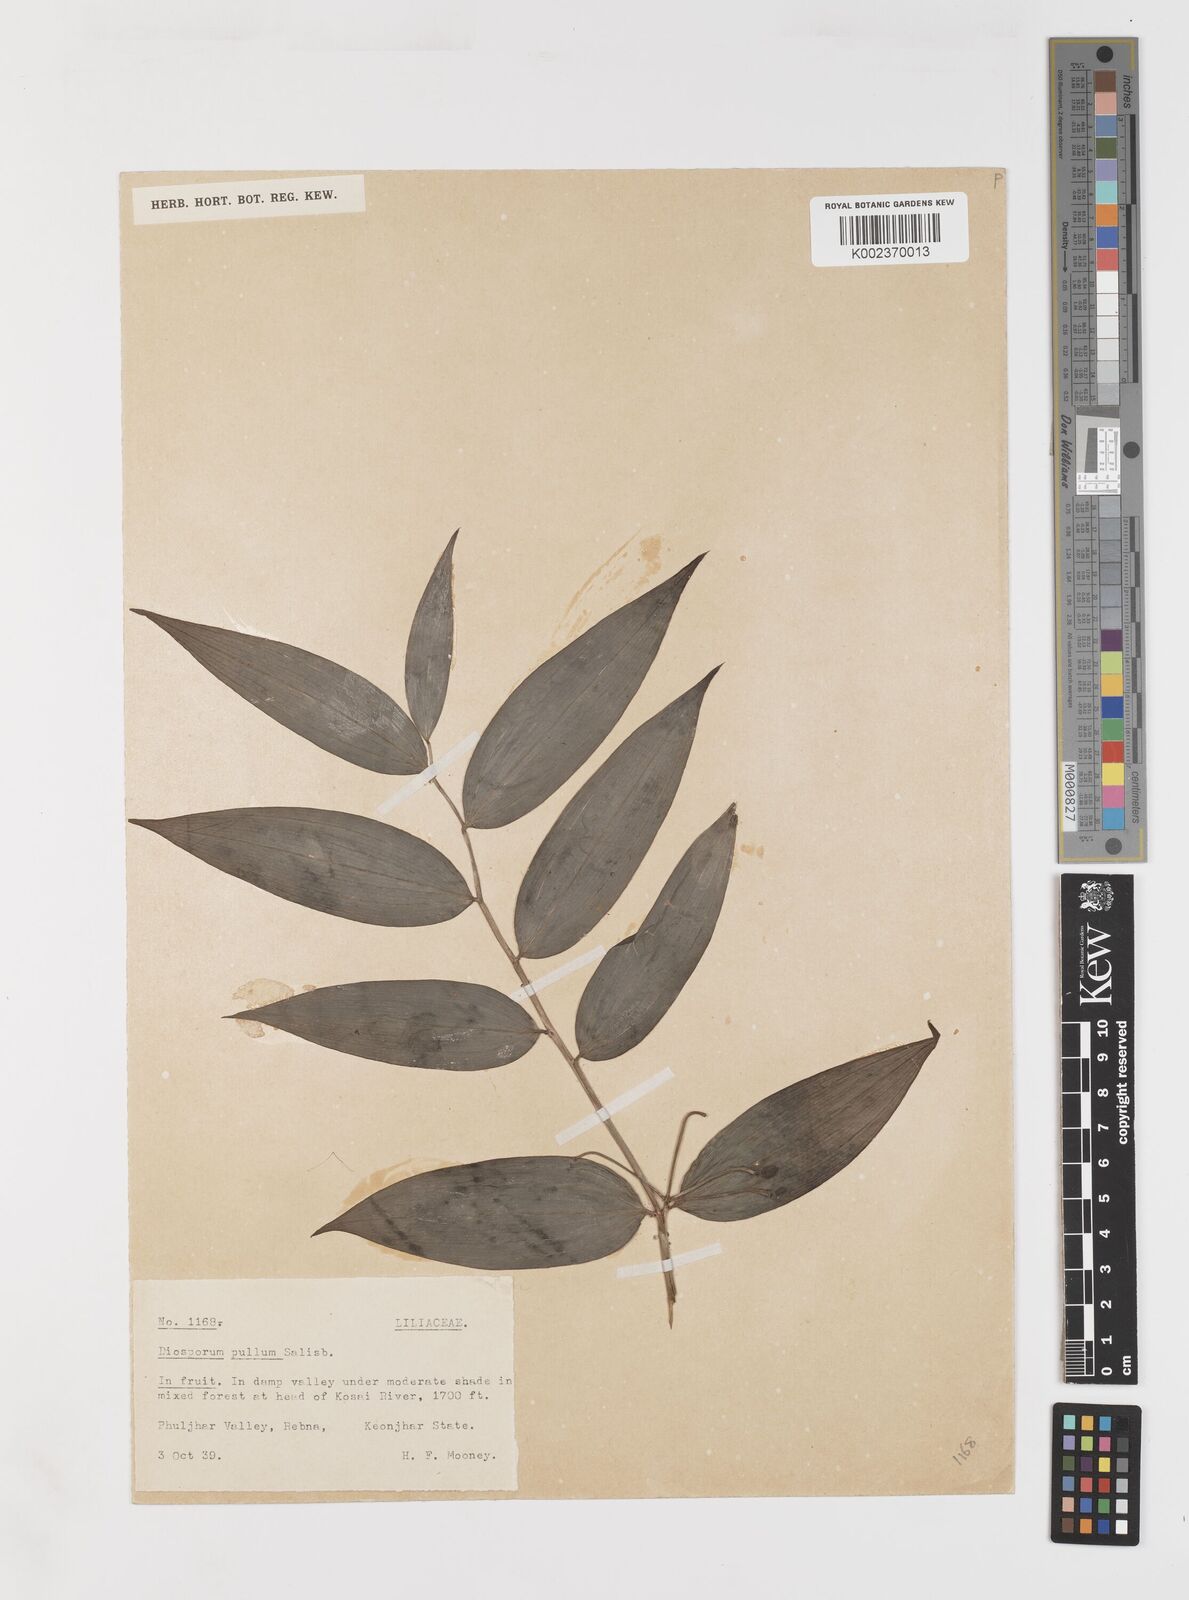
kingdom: Plantae
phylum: Tracheophyta
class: Liliopsida
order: Liliales
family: Colchicaceae
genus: Disporum
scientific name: Disporum cantoniense
